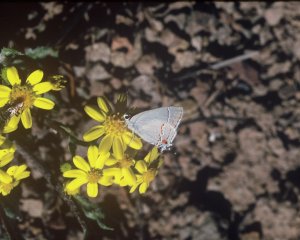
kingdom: Animalia
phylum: Arthropoda
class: Insecta
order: Lepidoptera
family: Lycaenidae
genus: Strymon
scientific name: Strymon melinus
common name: Gray Hairstreak
